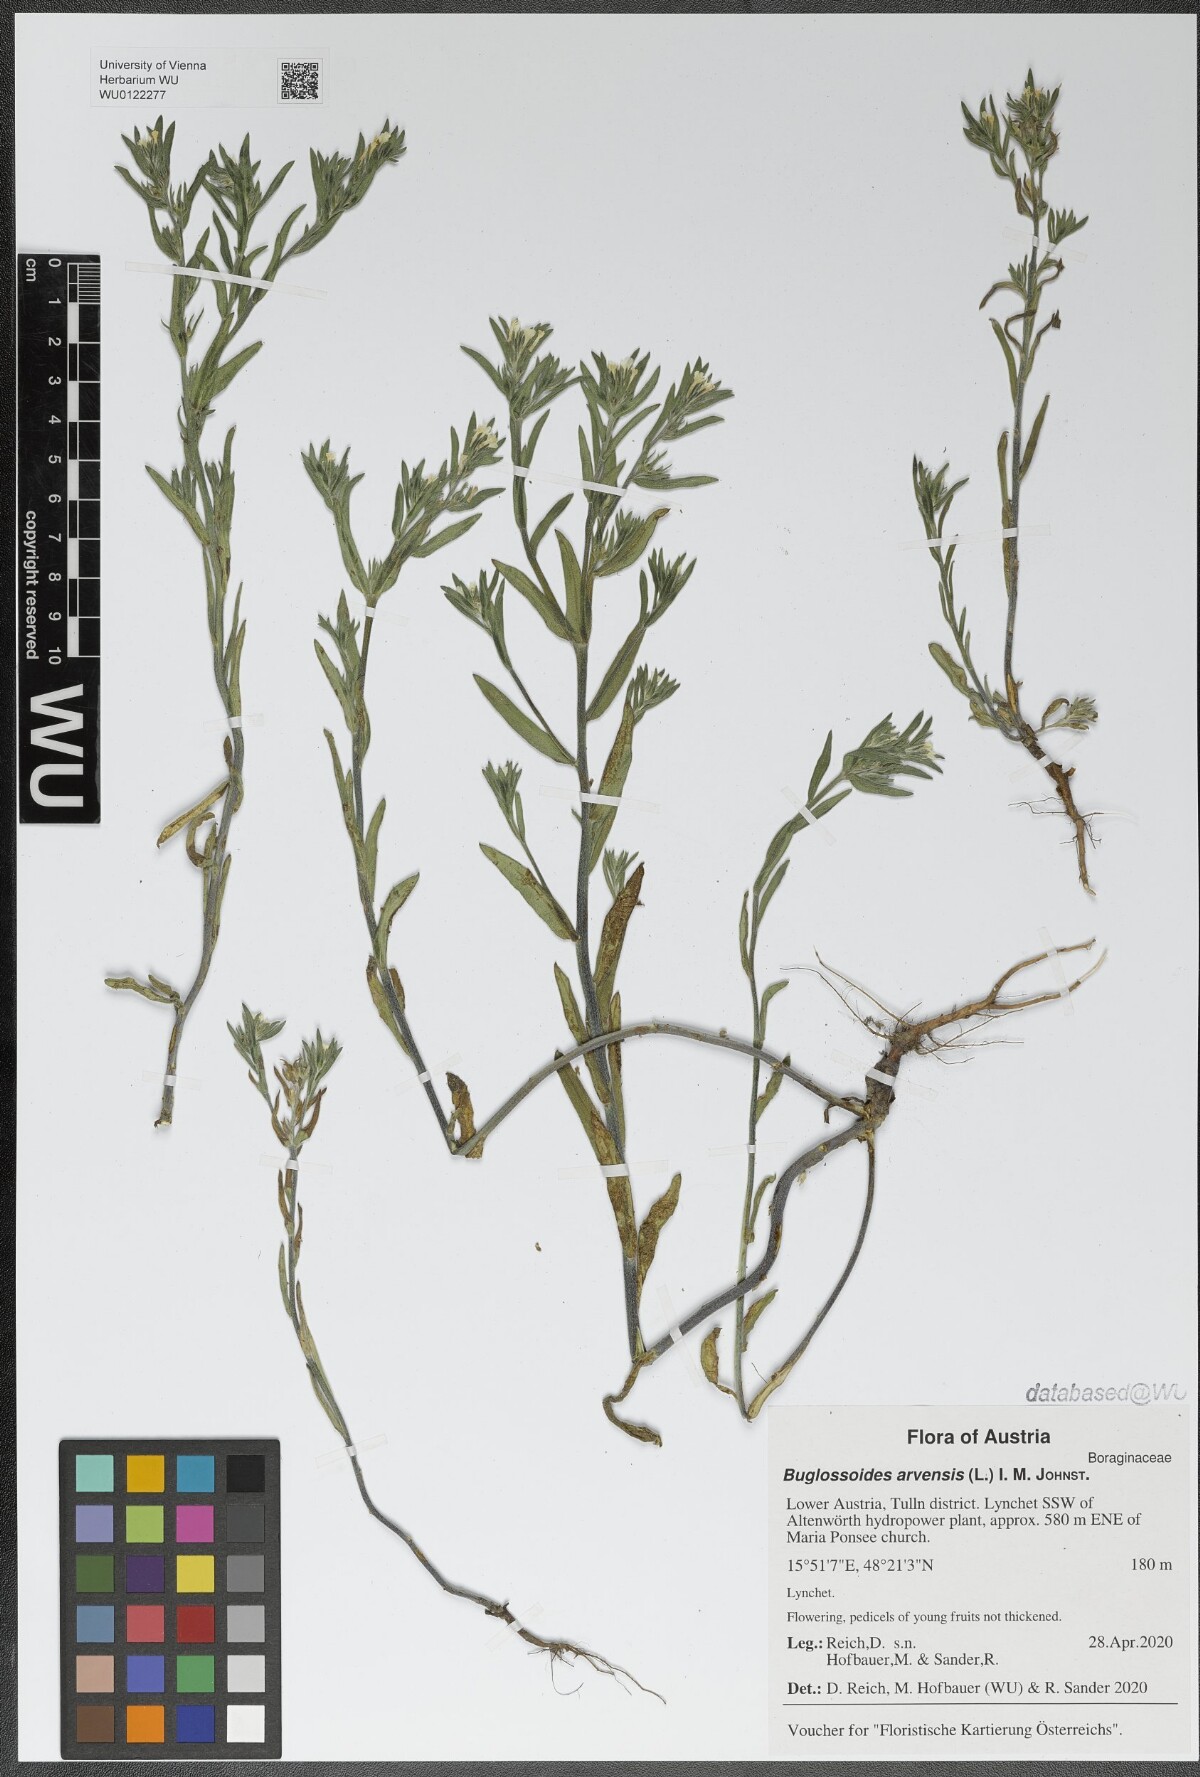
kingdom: Plantae
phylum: Tracheophyta
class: Magnoliopsida
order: Boraginales
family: Boraginaceae
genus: Buglossoides
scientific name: Buglossoides arvensis
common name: Corn gromwell
